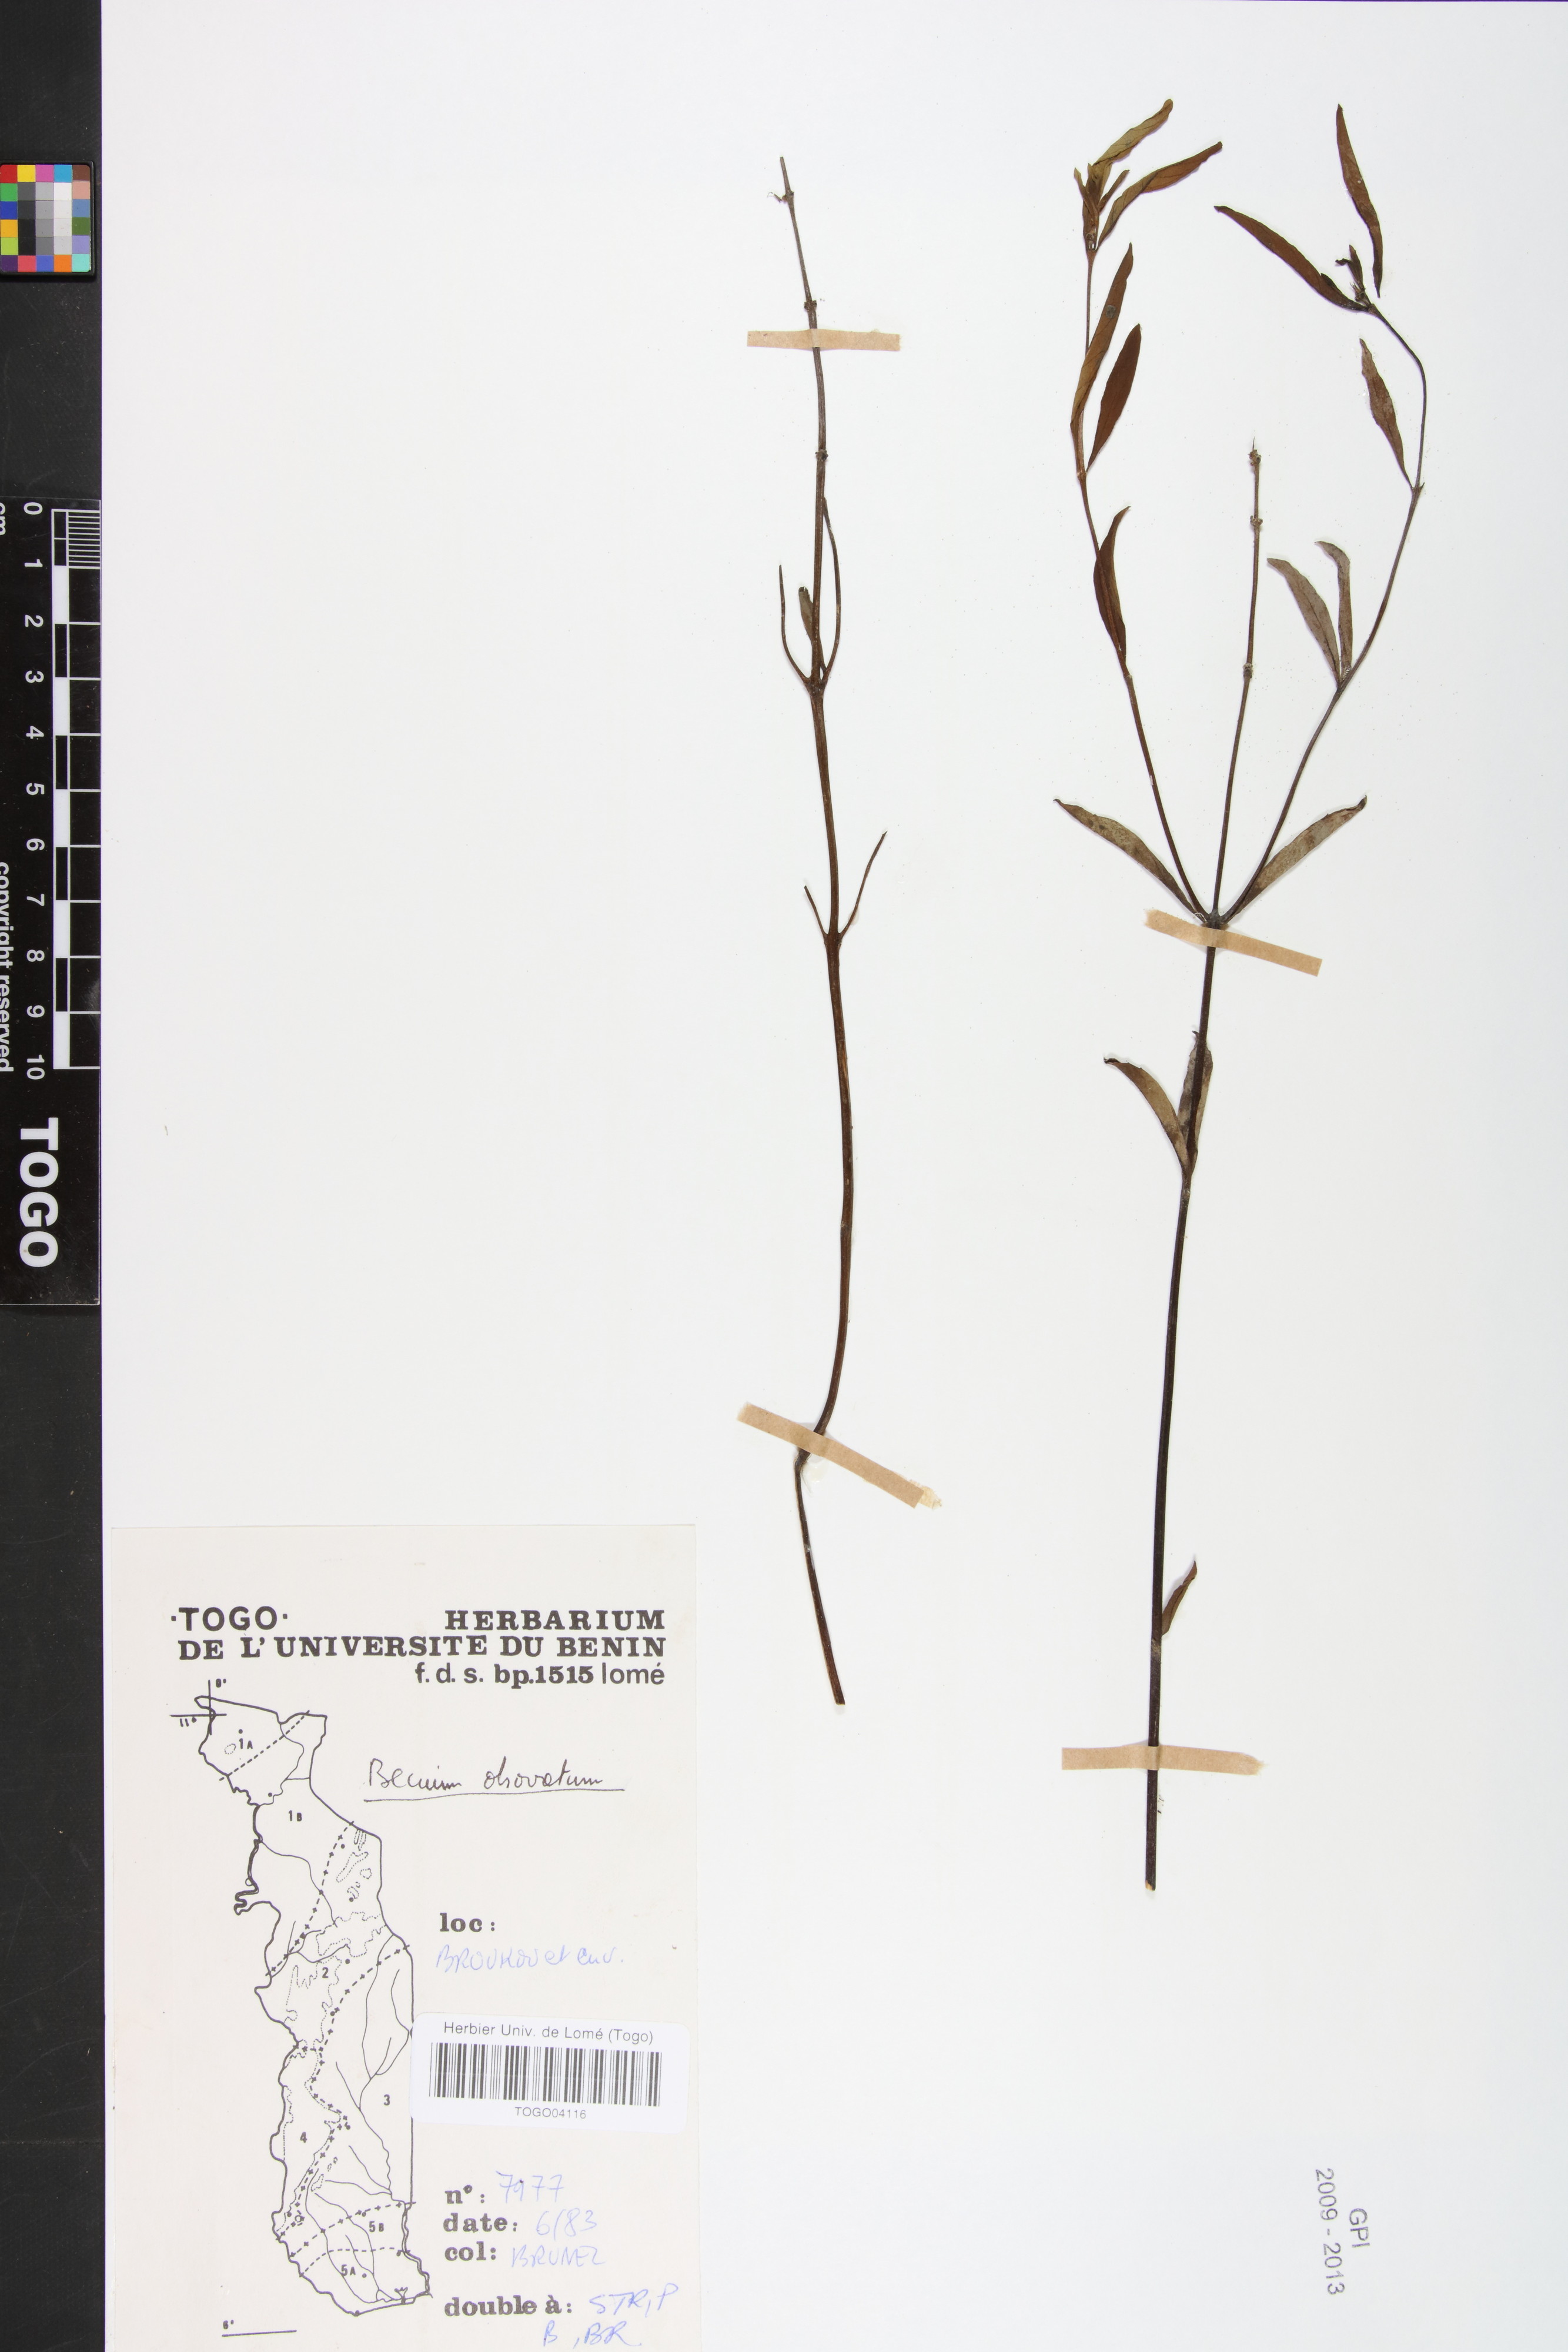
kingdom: Plantae
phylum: Tracheophyta
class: Magnoliopsida
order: Lamiales
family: Lamiaceae
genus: Ocimum
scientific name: Ocimum obovatum
